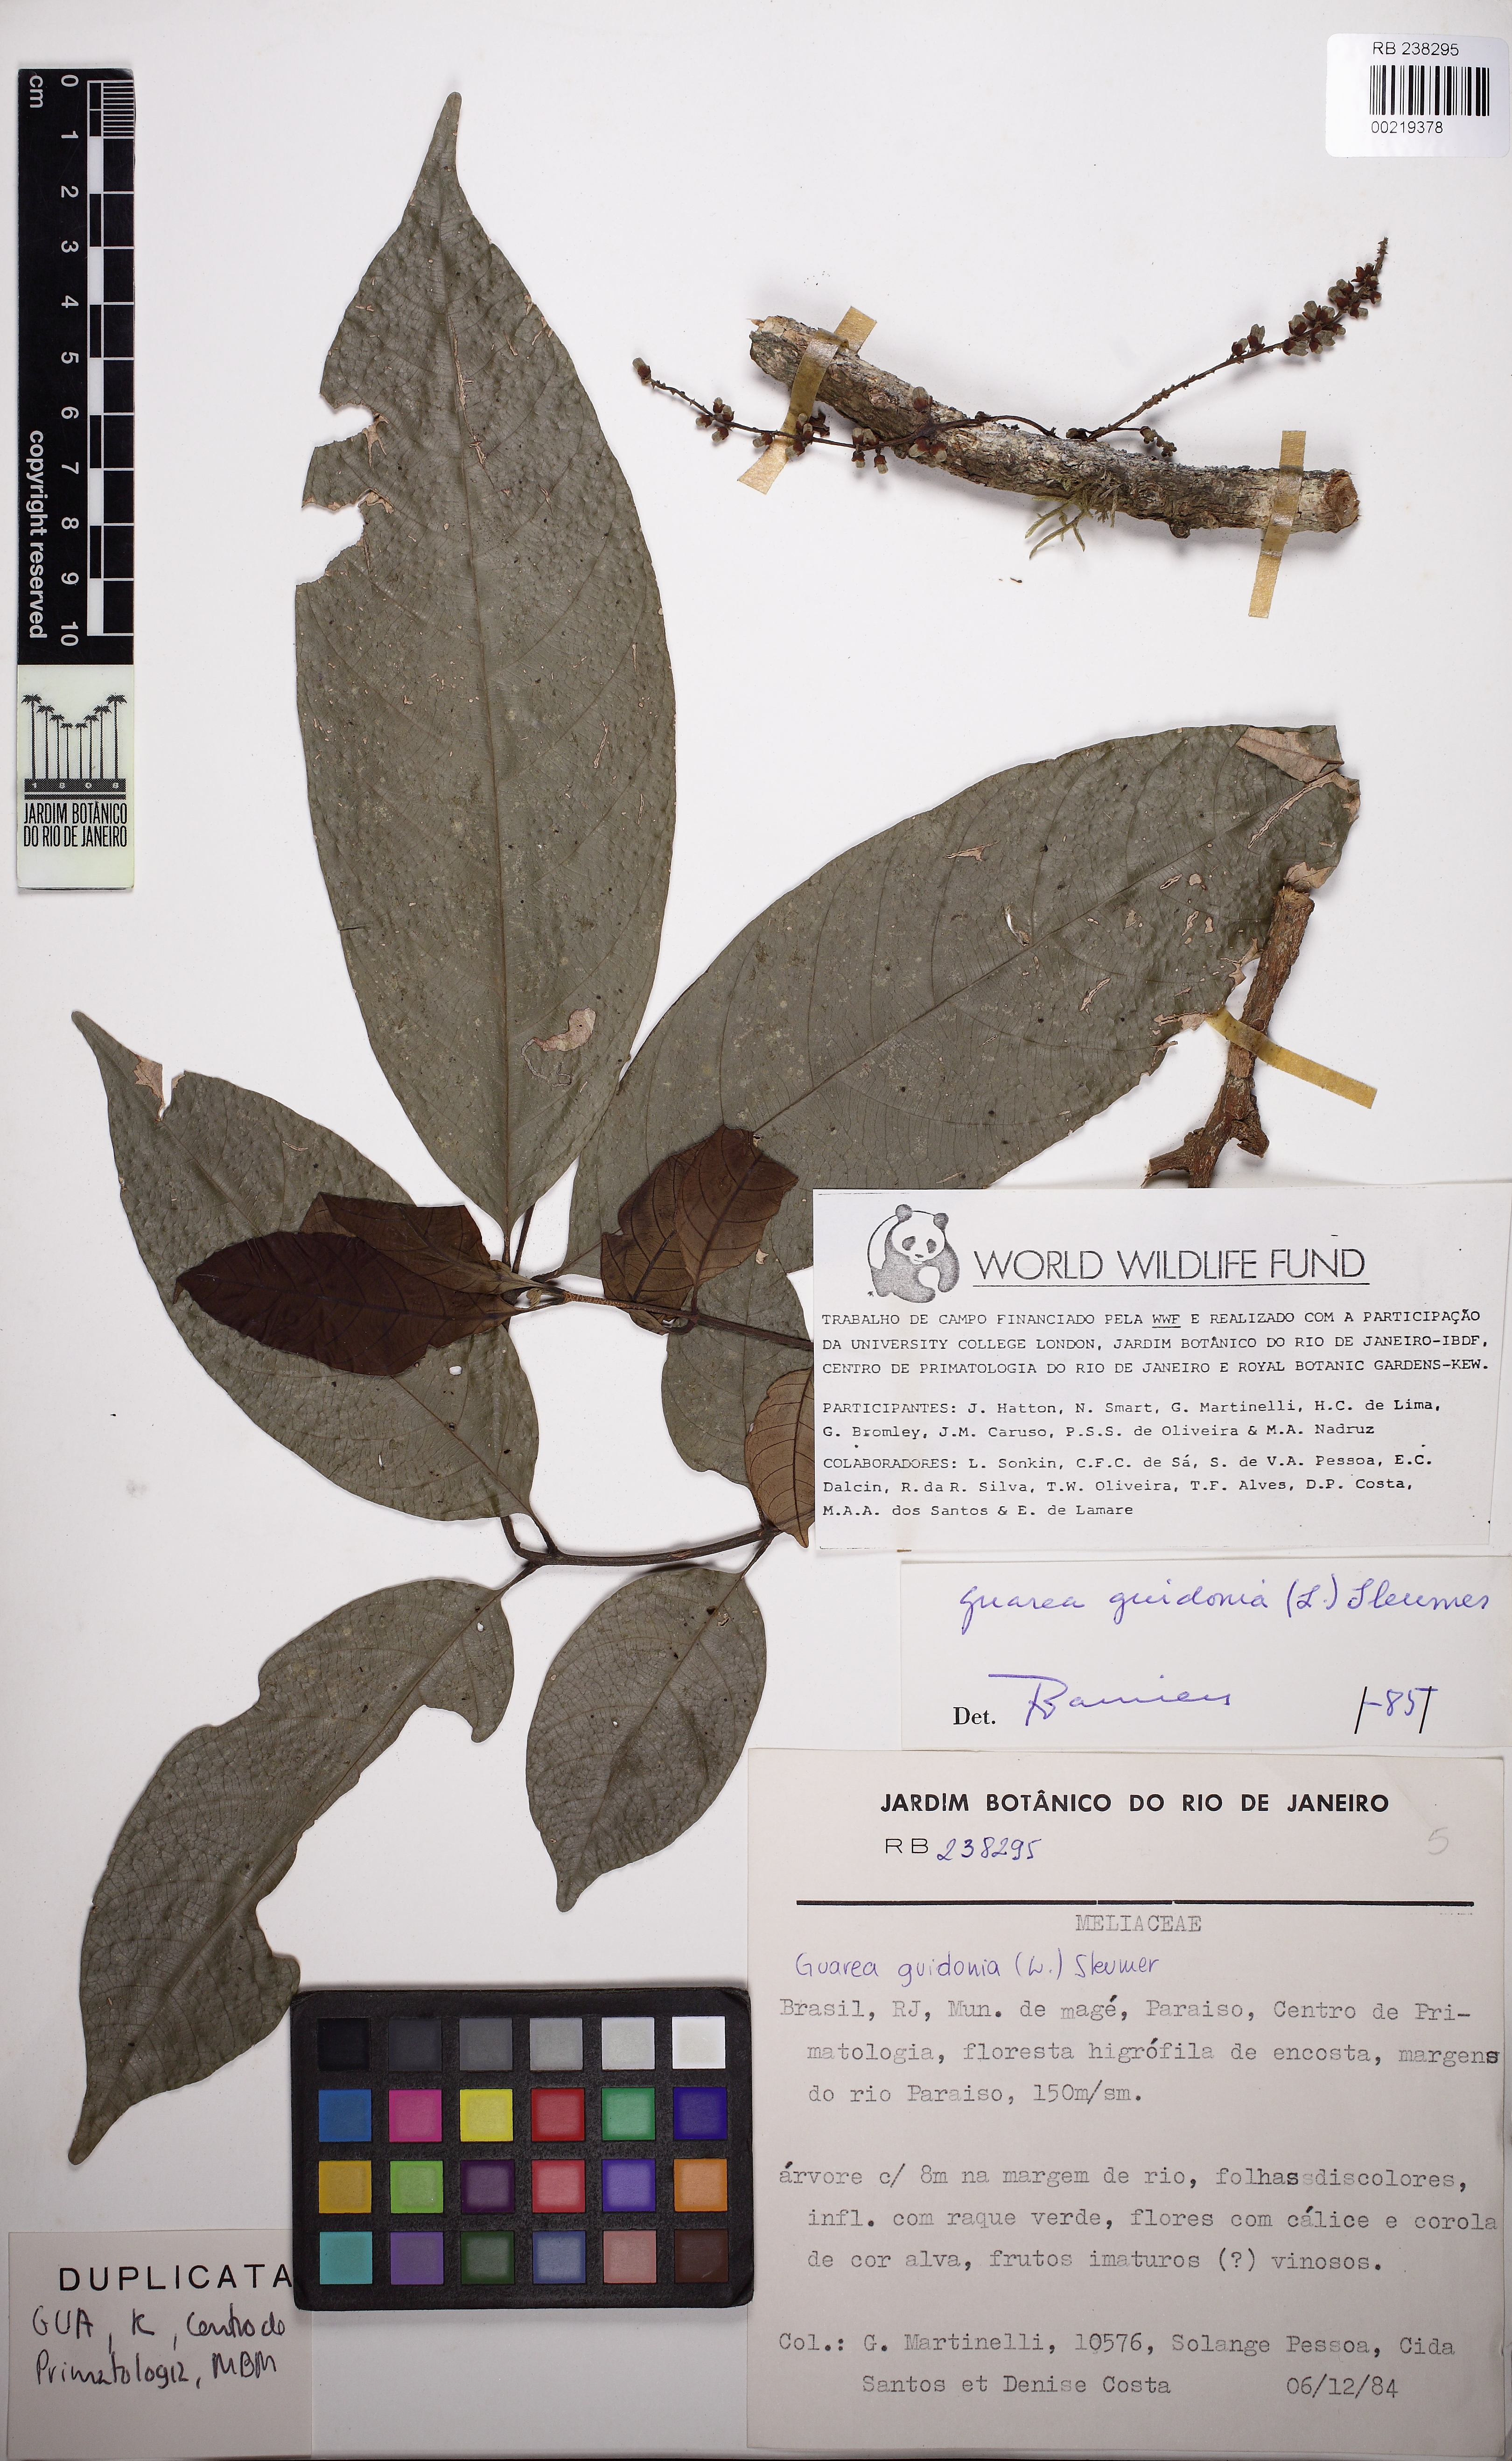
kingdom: Plantae
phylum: Tracheophyta
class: Magnoliopsida
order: Sapindales
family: Meliaceae
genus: Guarea
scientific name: Guarea guidonia
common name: American muskwood
